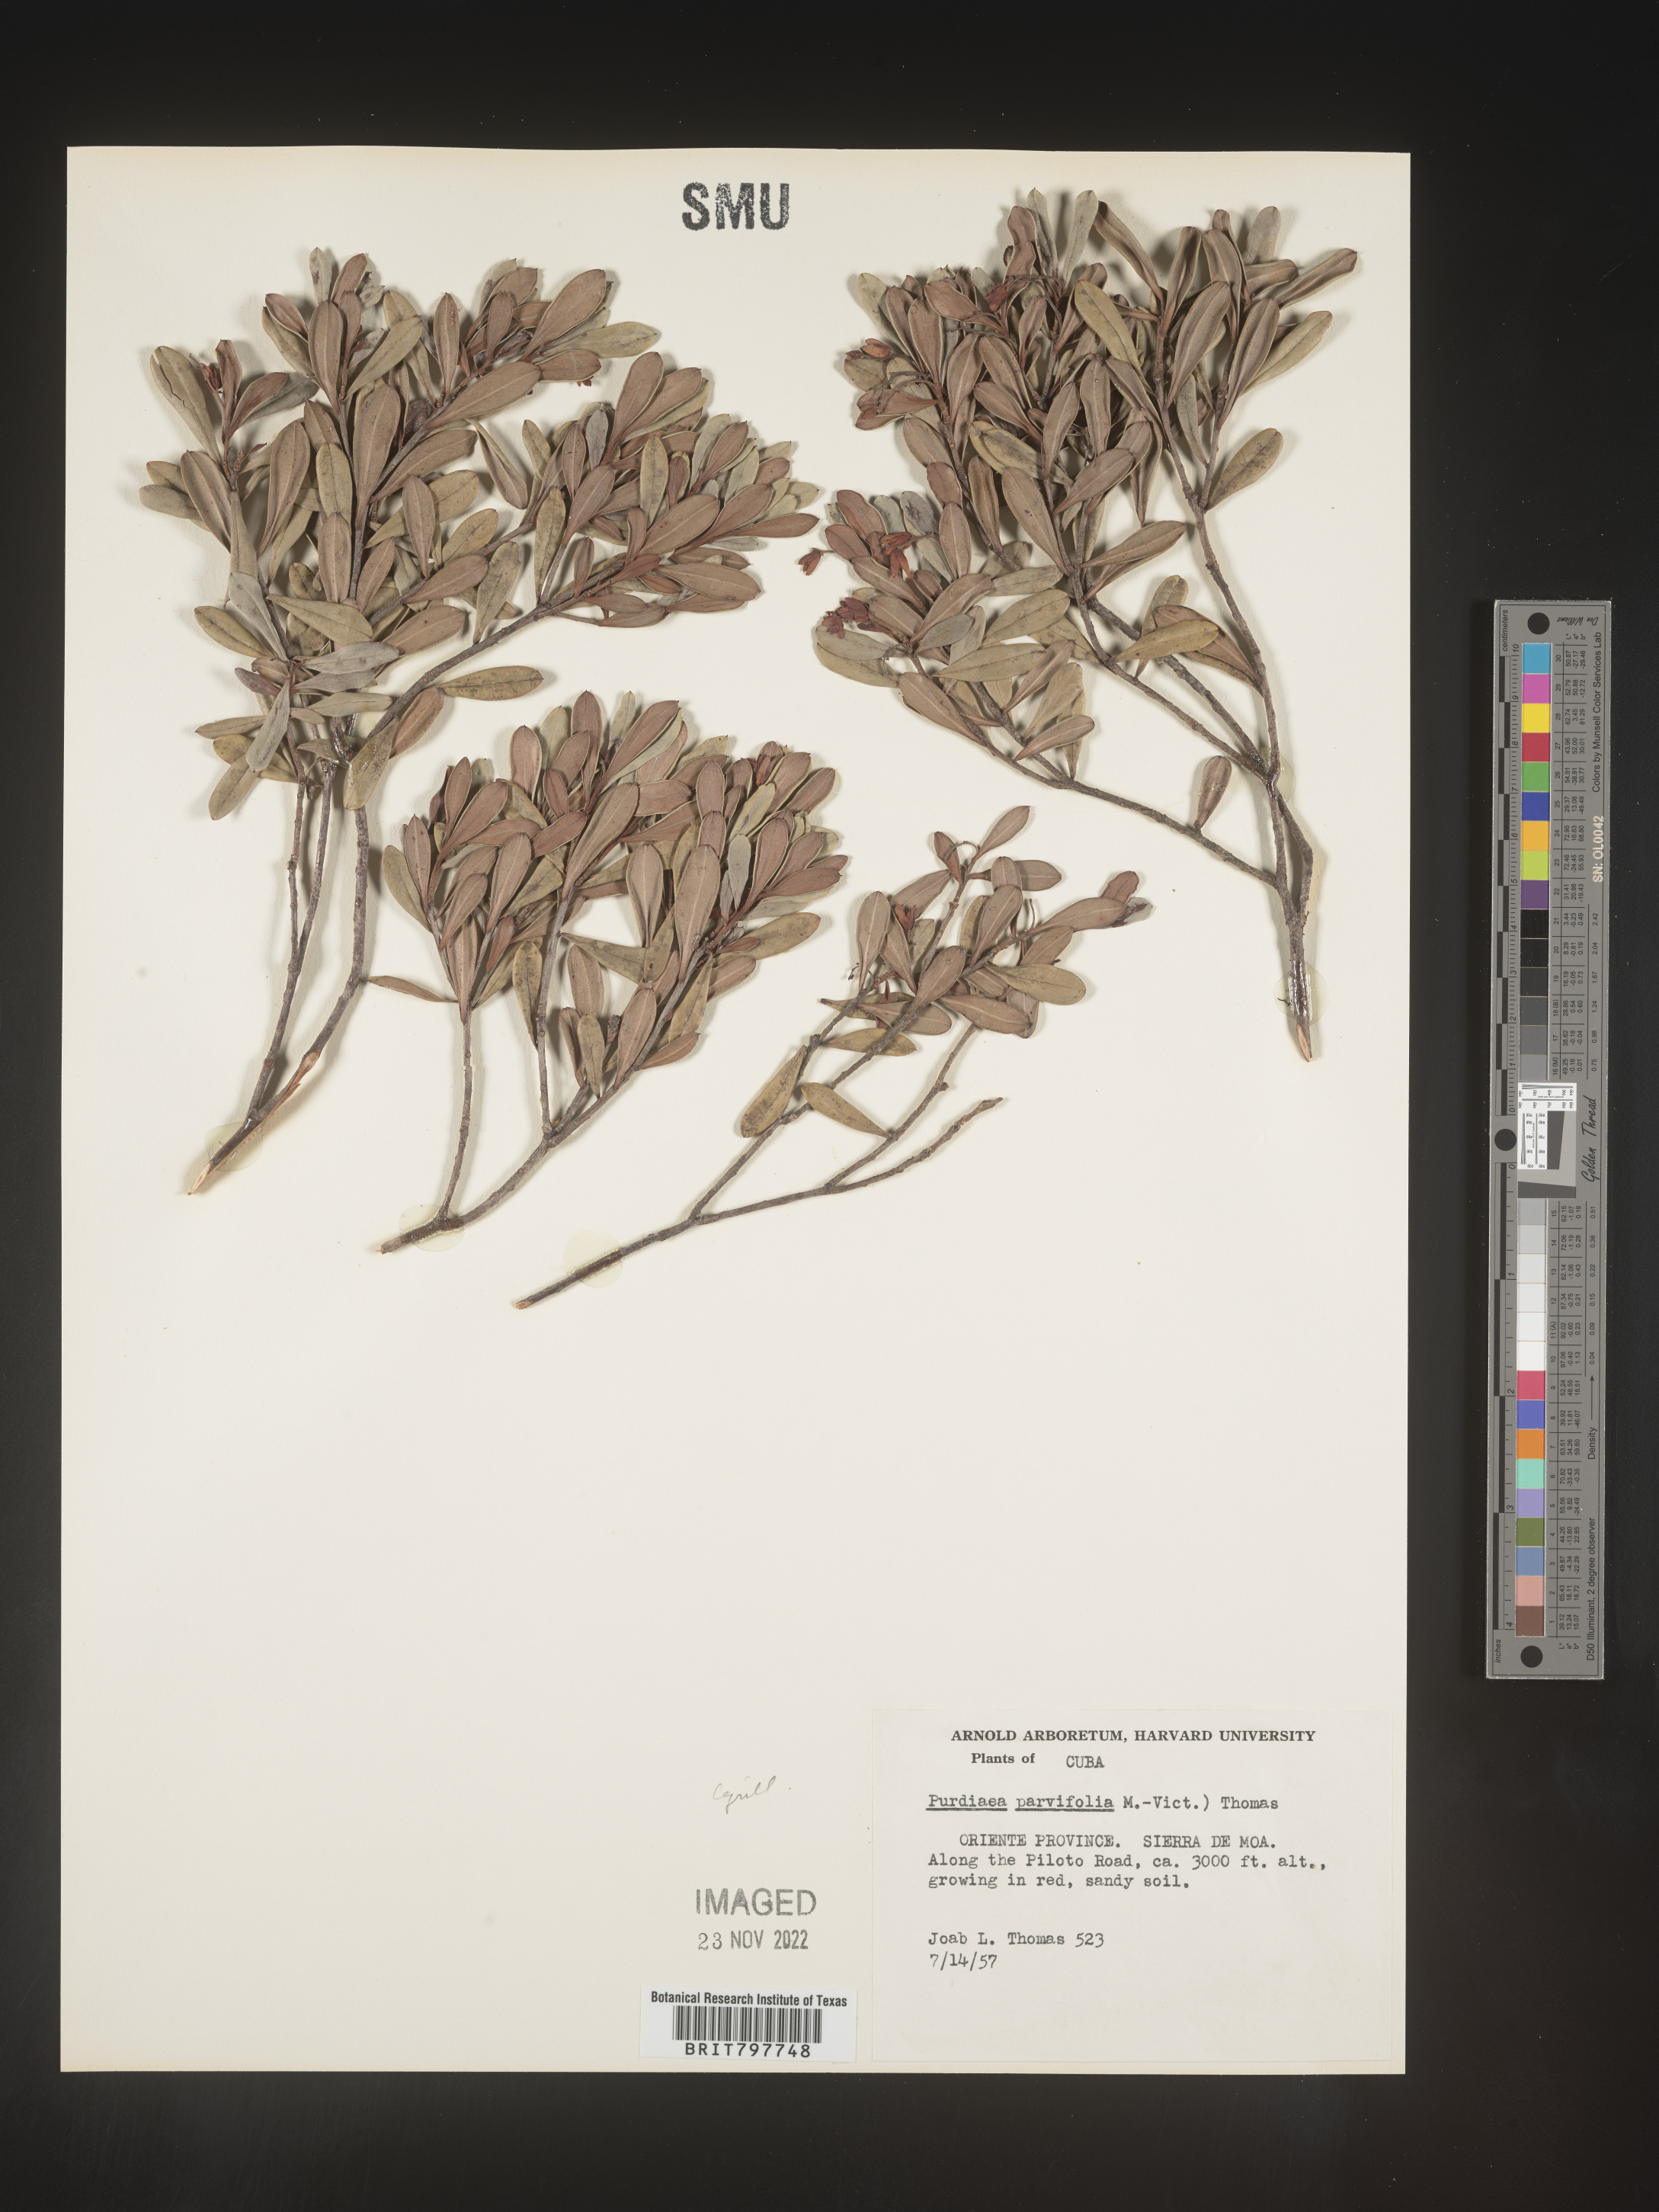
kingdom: Plantae
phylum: Tracheophyta
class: Magnoliopsida
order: Ericales
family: Clethraceae
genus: Purdiaea
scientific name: Purdiaea
